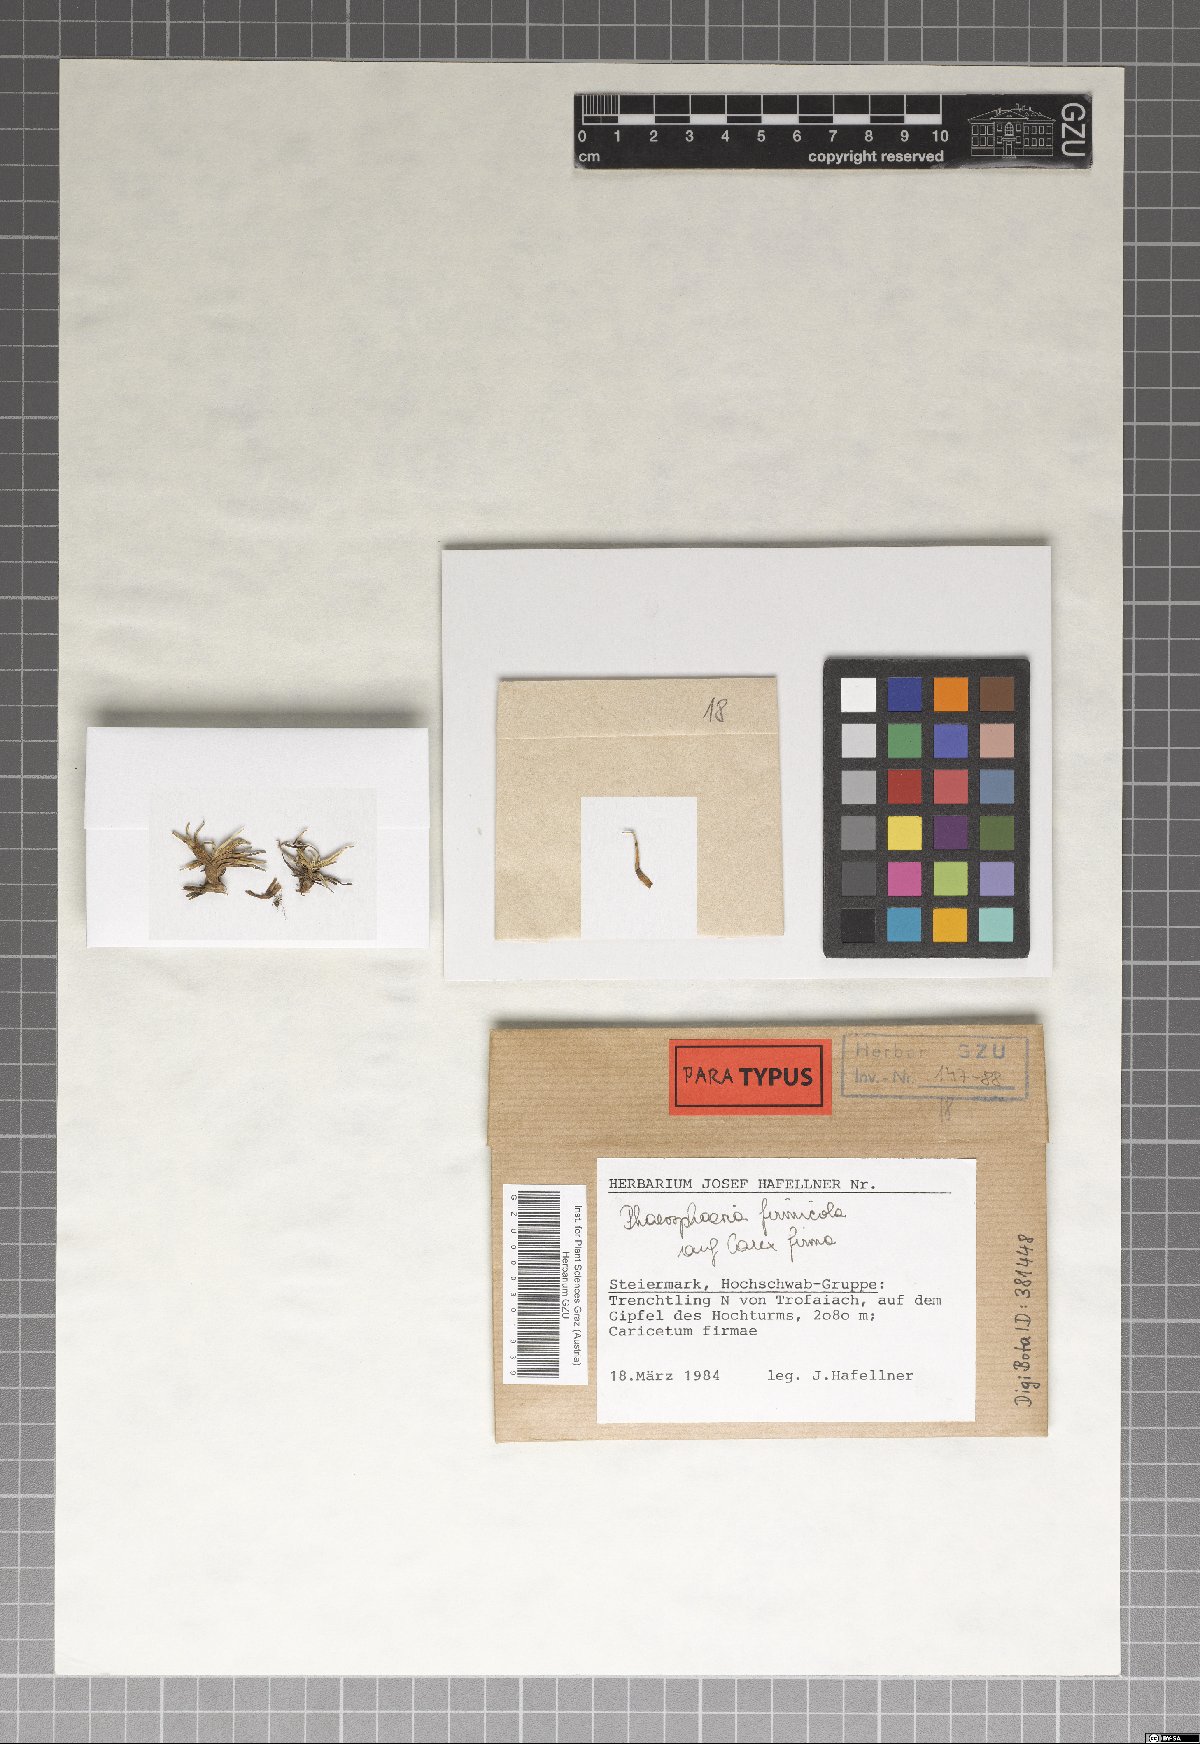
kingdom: Fungi
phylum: Ascomycota
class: Dothideomycetes
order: Pleosporales
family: Phaeosphaeriaceae
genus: Phaeosphaeria
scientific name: Phaeosphaeria firmicola
